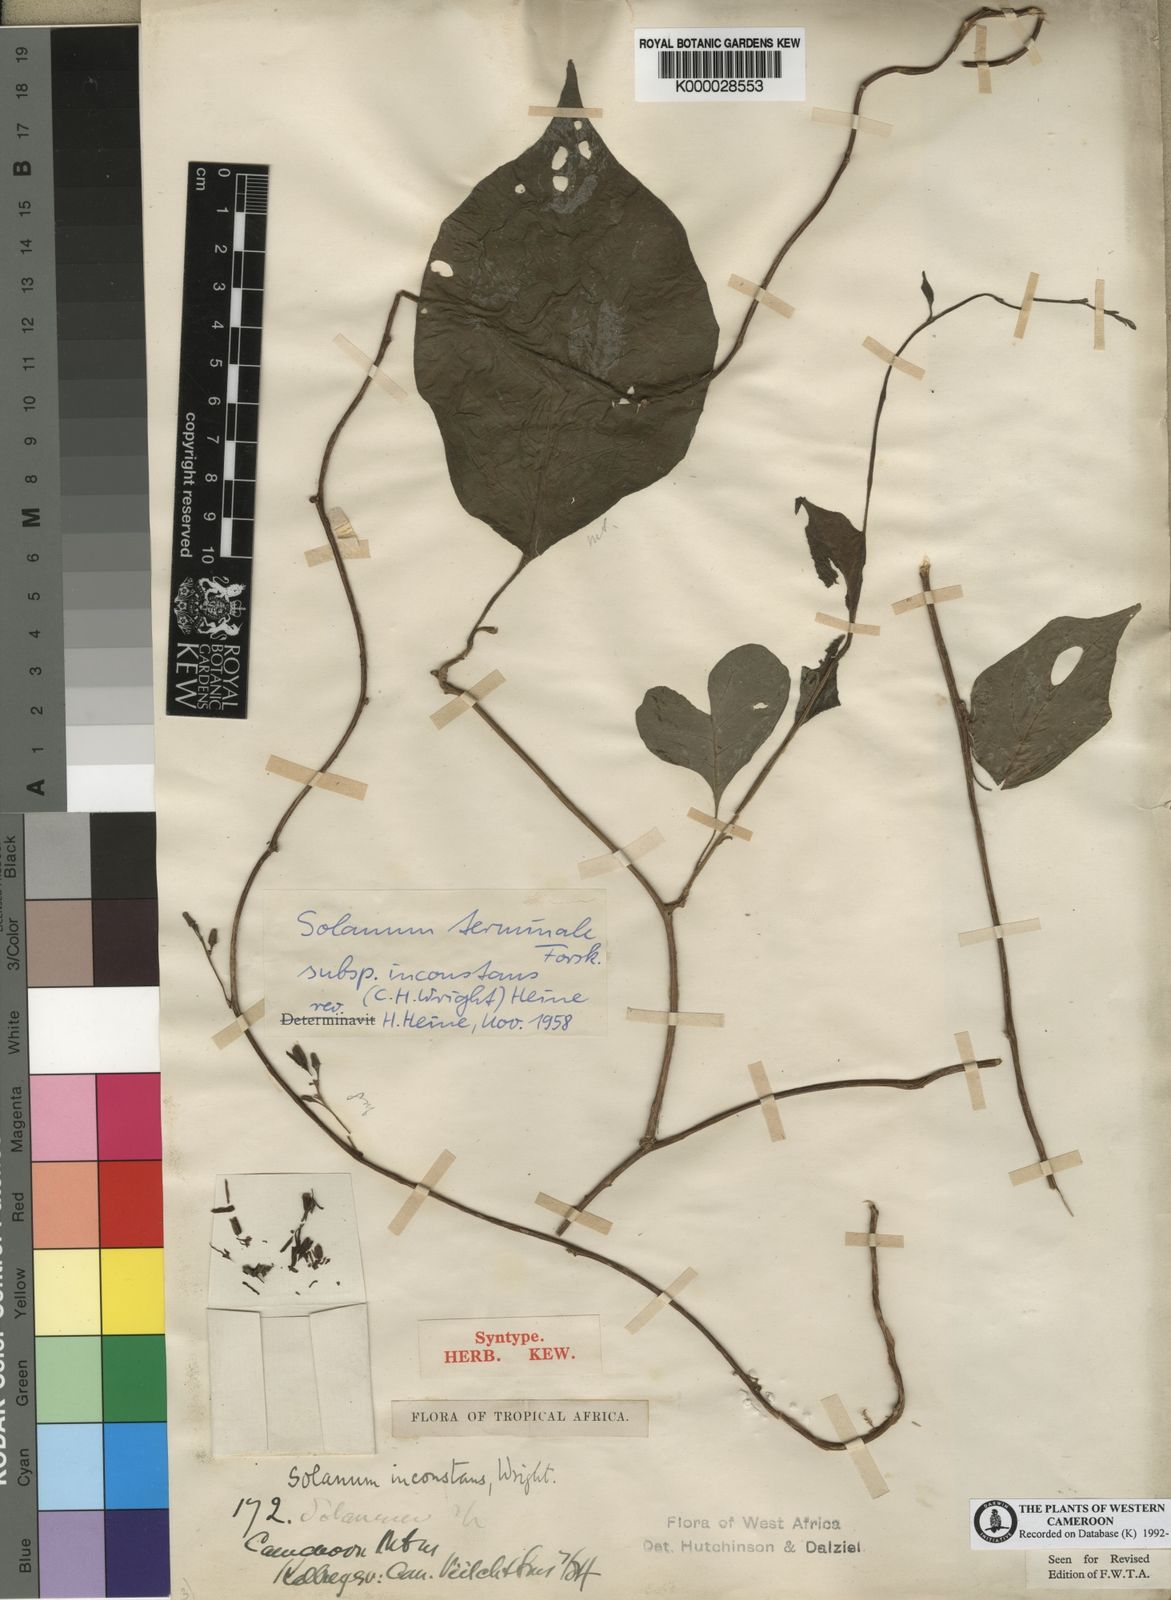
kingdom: Plantae
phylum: Tracheophyta
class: Magnoliopsida
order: Solanales
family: Solanaceae
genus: Solanum
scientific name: Solanum terminale
